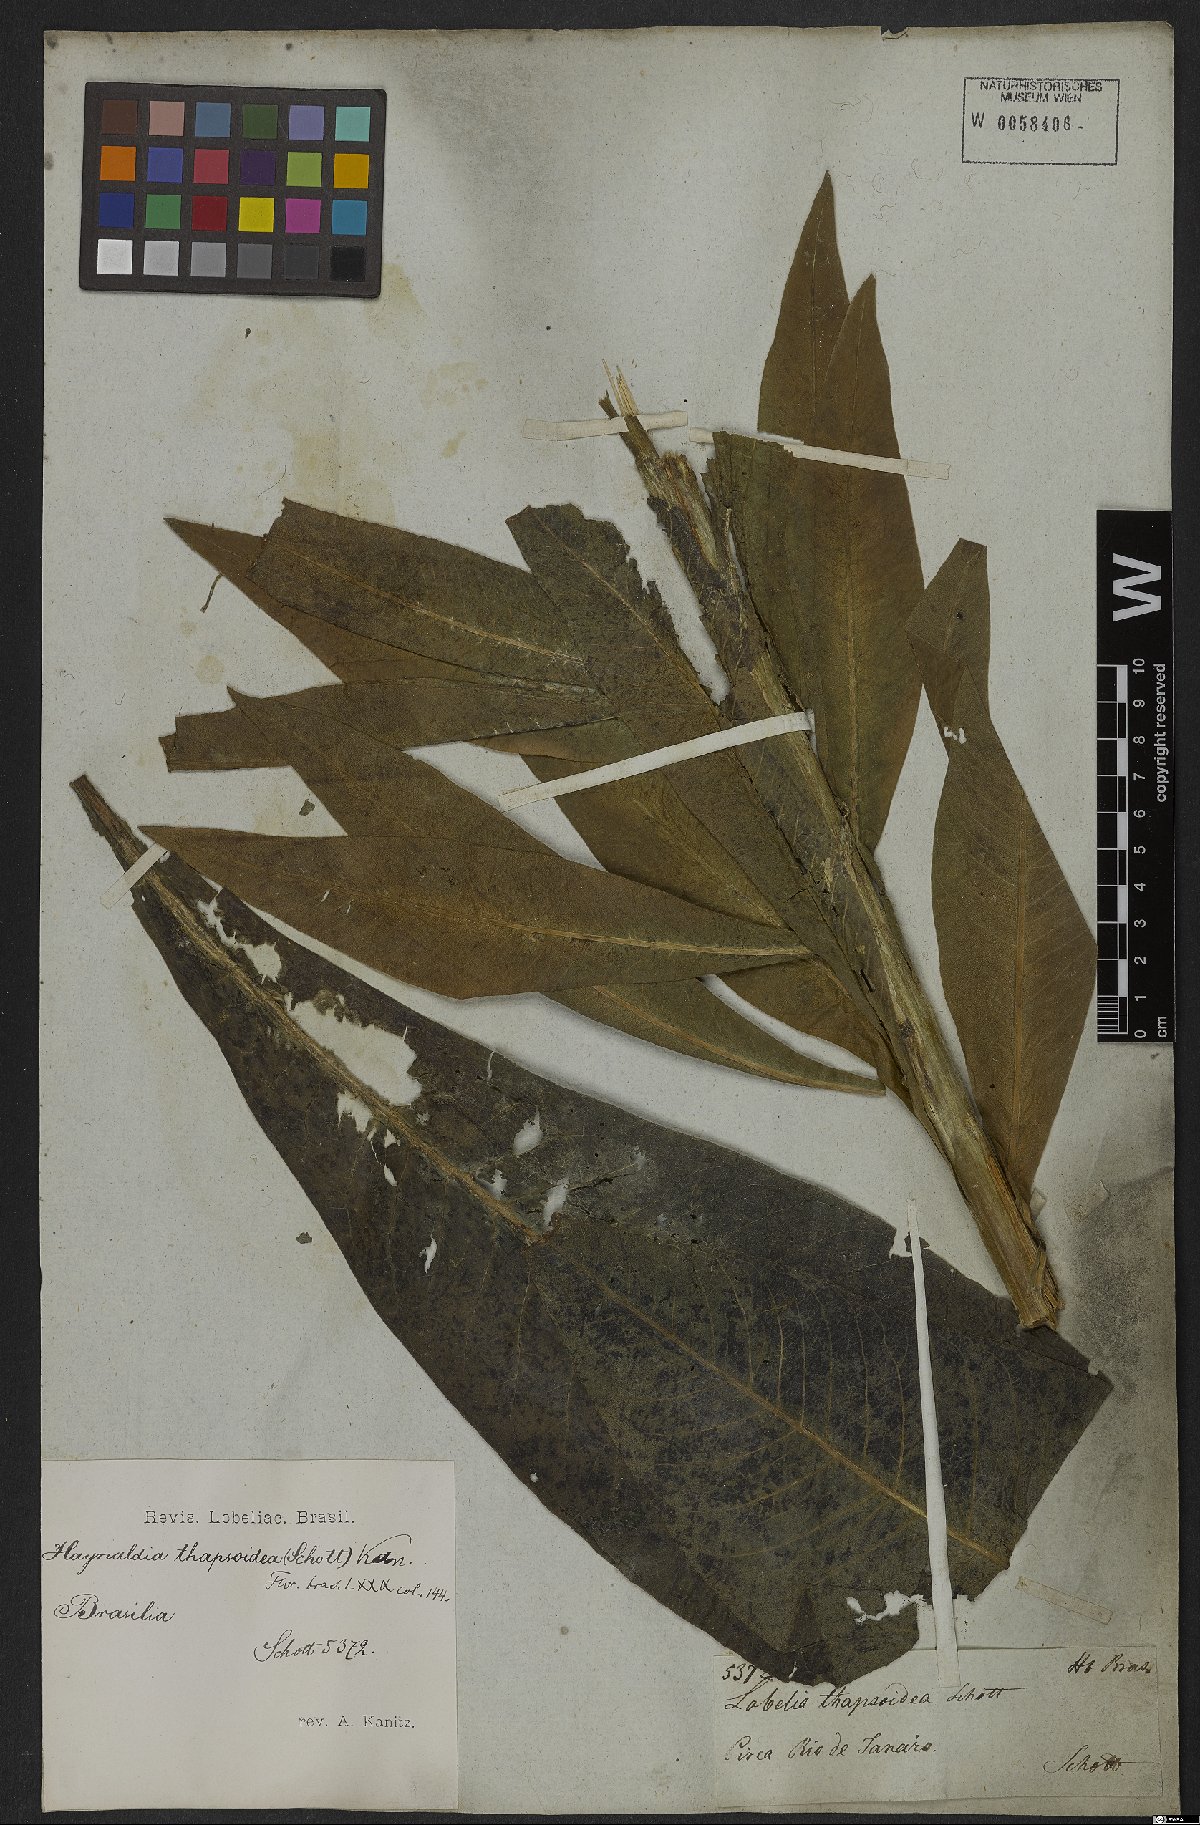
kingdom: Plantae
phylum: Tracheophyta
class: Magnoliopsida
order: Asterales
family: Campanulaceae
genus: Lobelia
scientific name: Lobelia thapsoidea
